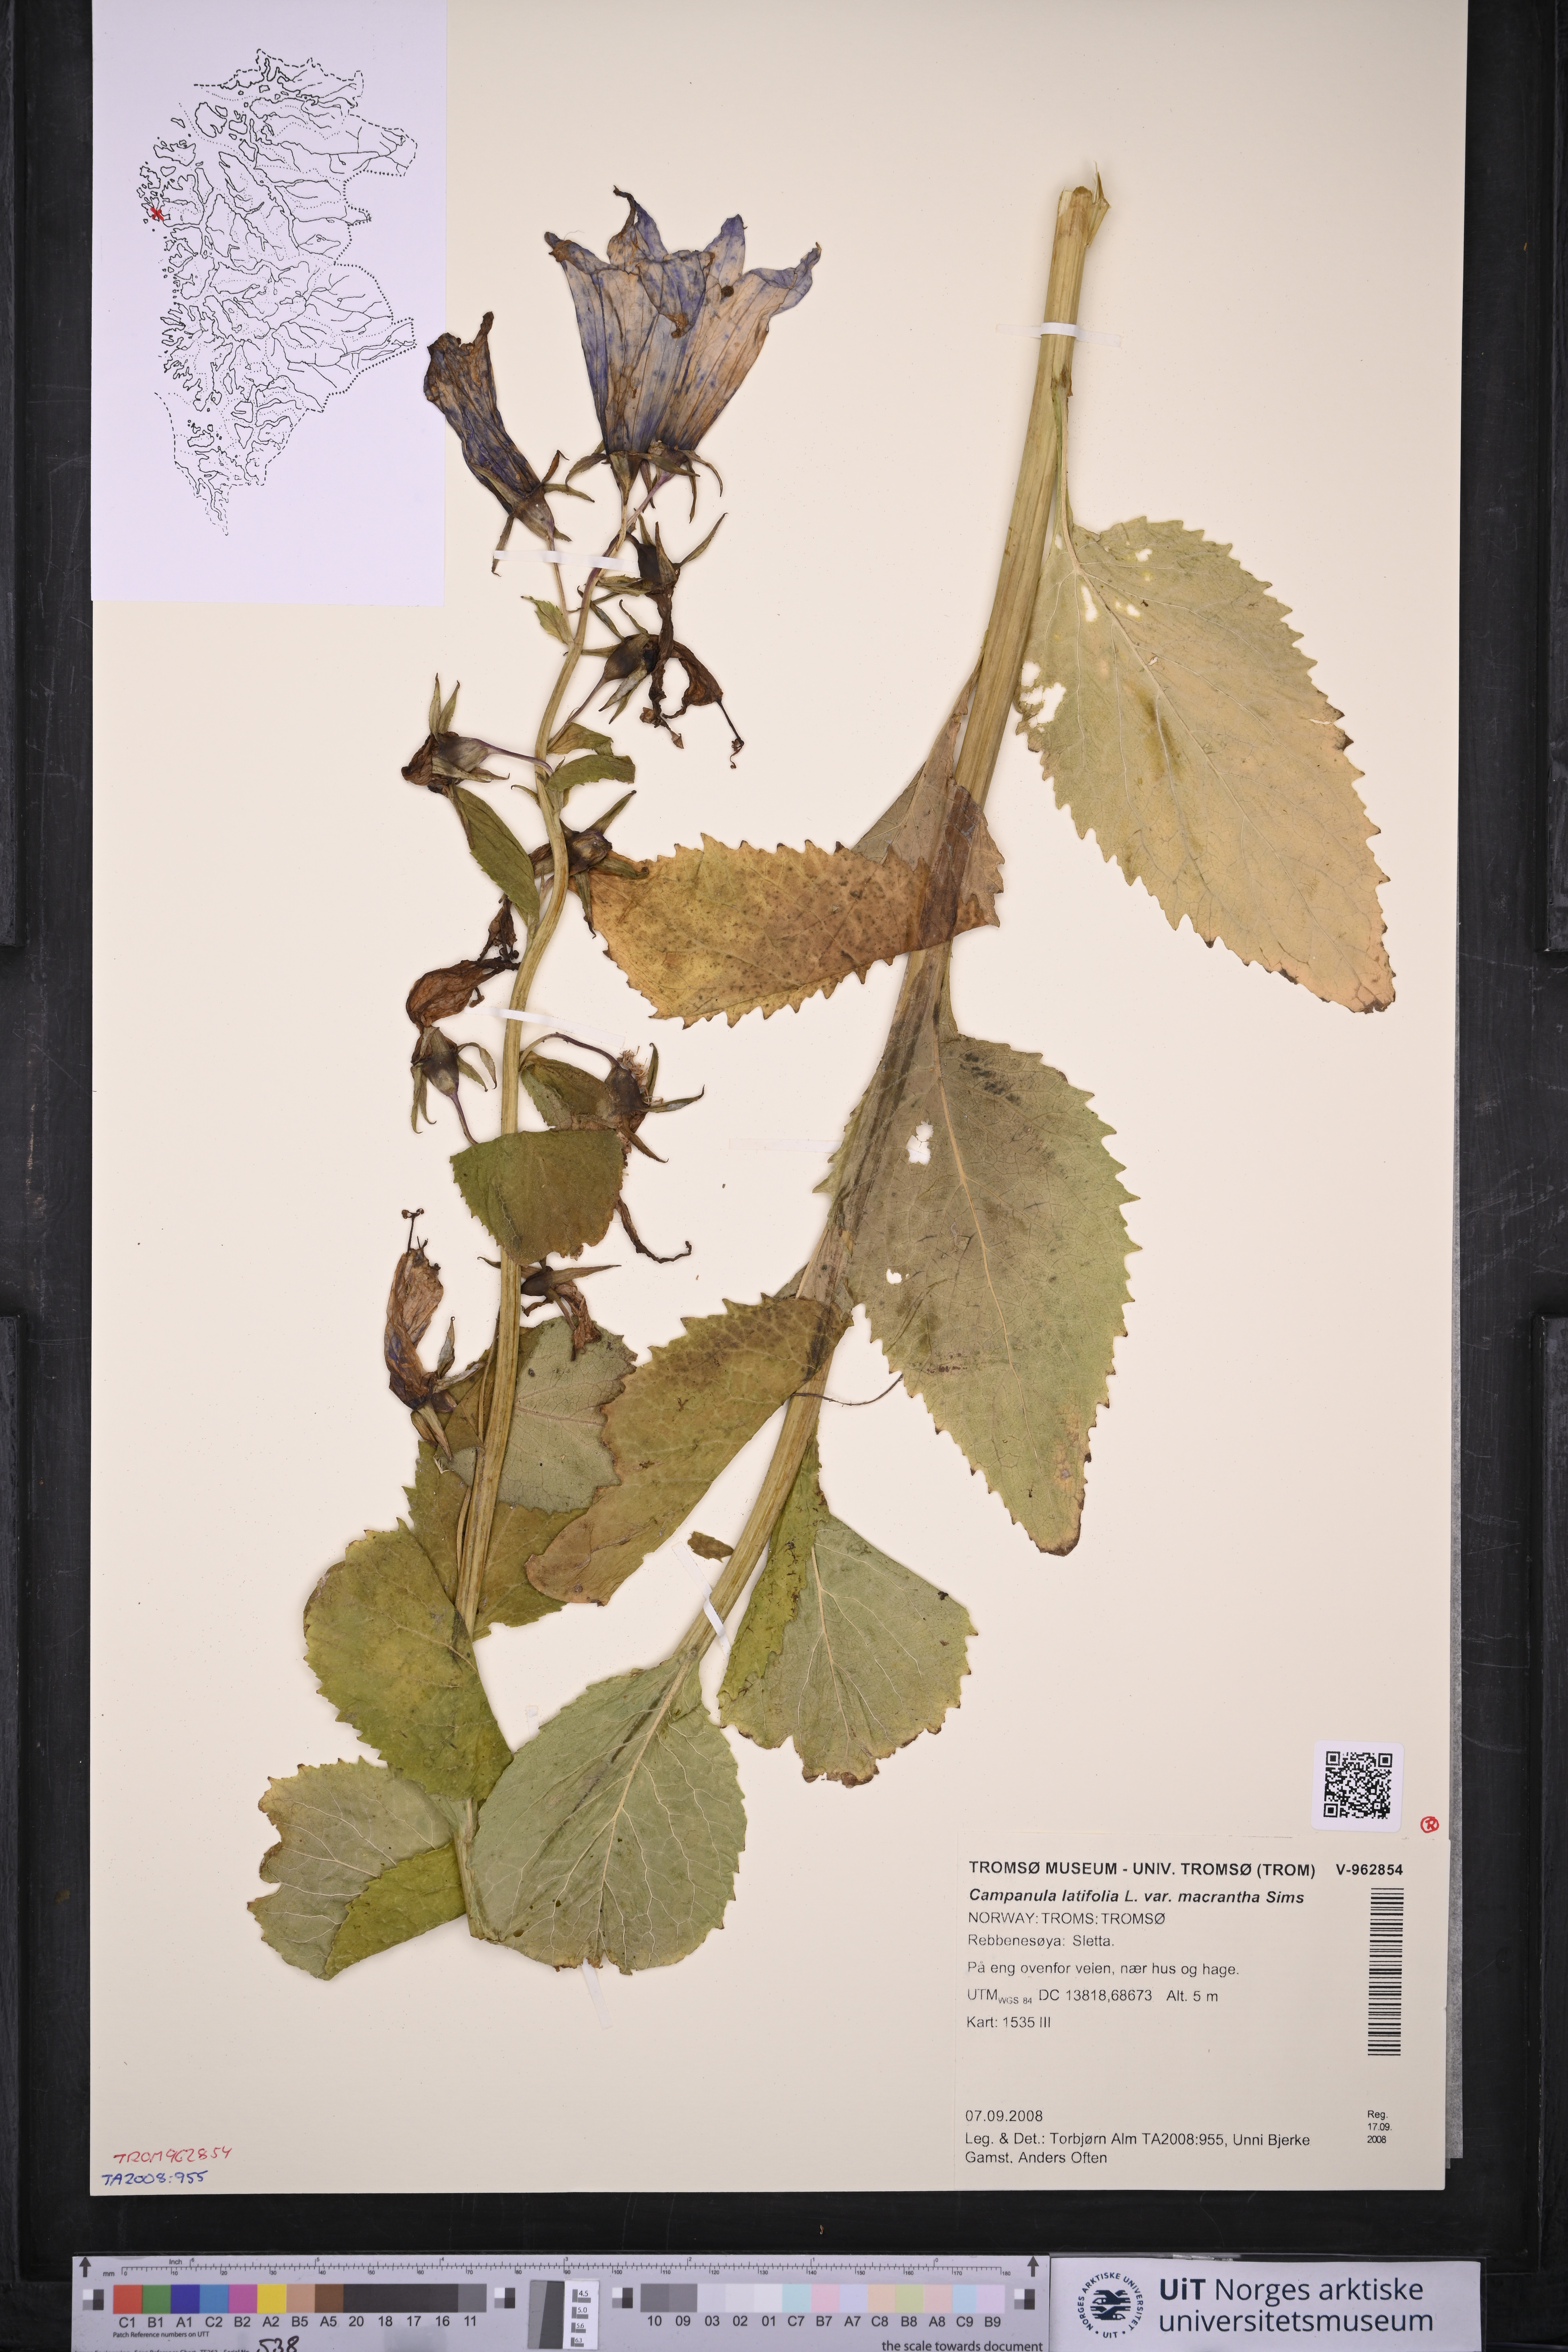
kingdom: Plantae
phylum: Tracheophyta
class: Magnoliopsida
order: Asterales
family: Campanulaceae
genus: Campanula
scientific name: Campanula latifolia
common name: Giant bellflower
